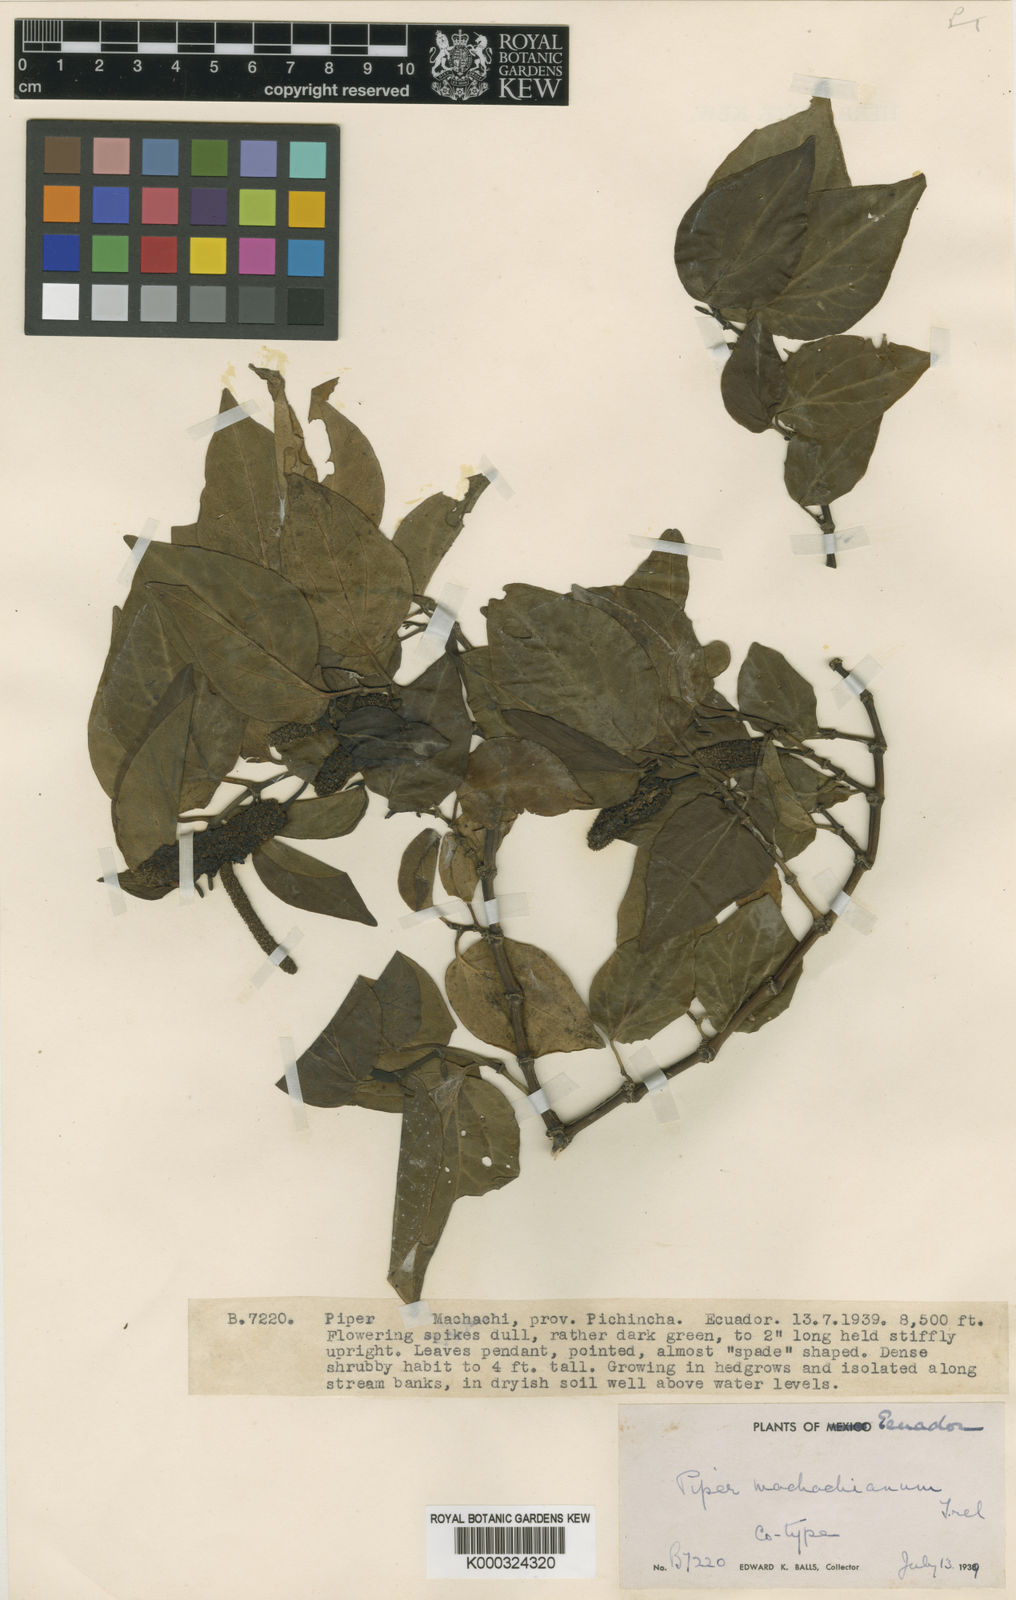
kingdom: Plantae
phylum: Tracheophyta
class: Magnoliopsida
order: Piperales
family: Piperaceae
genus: Piper
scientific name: Piper
